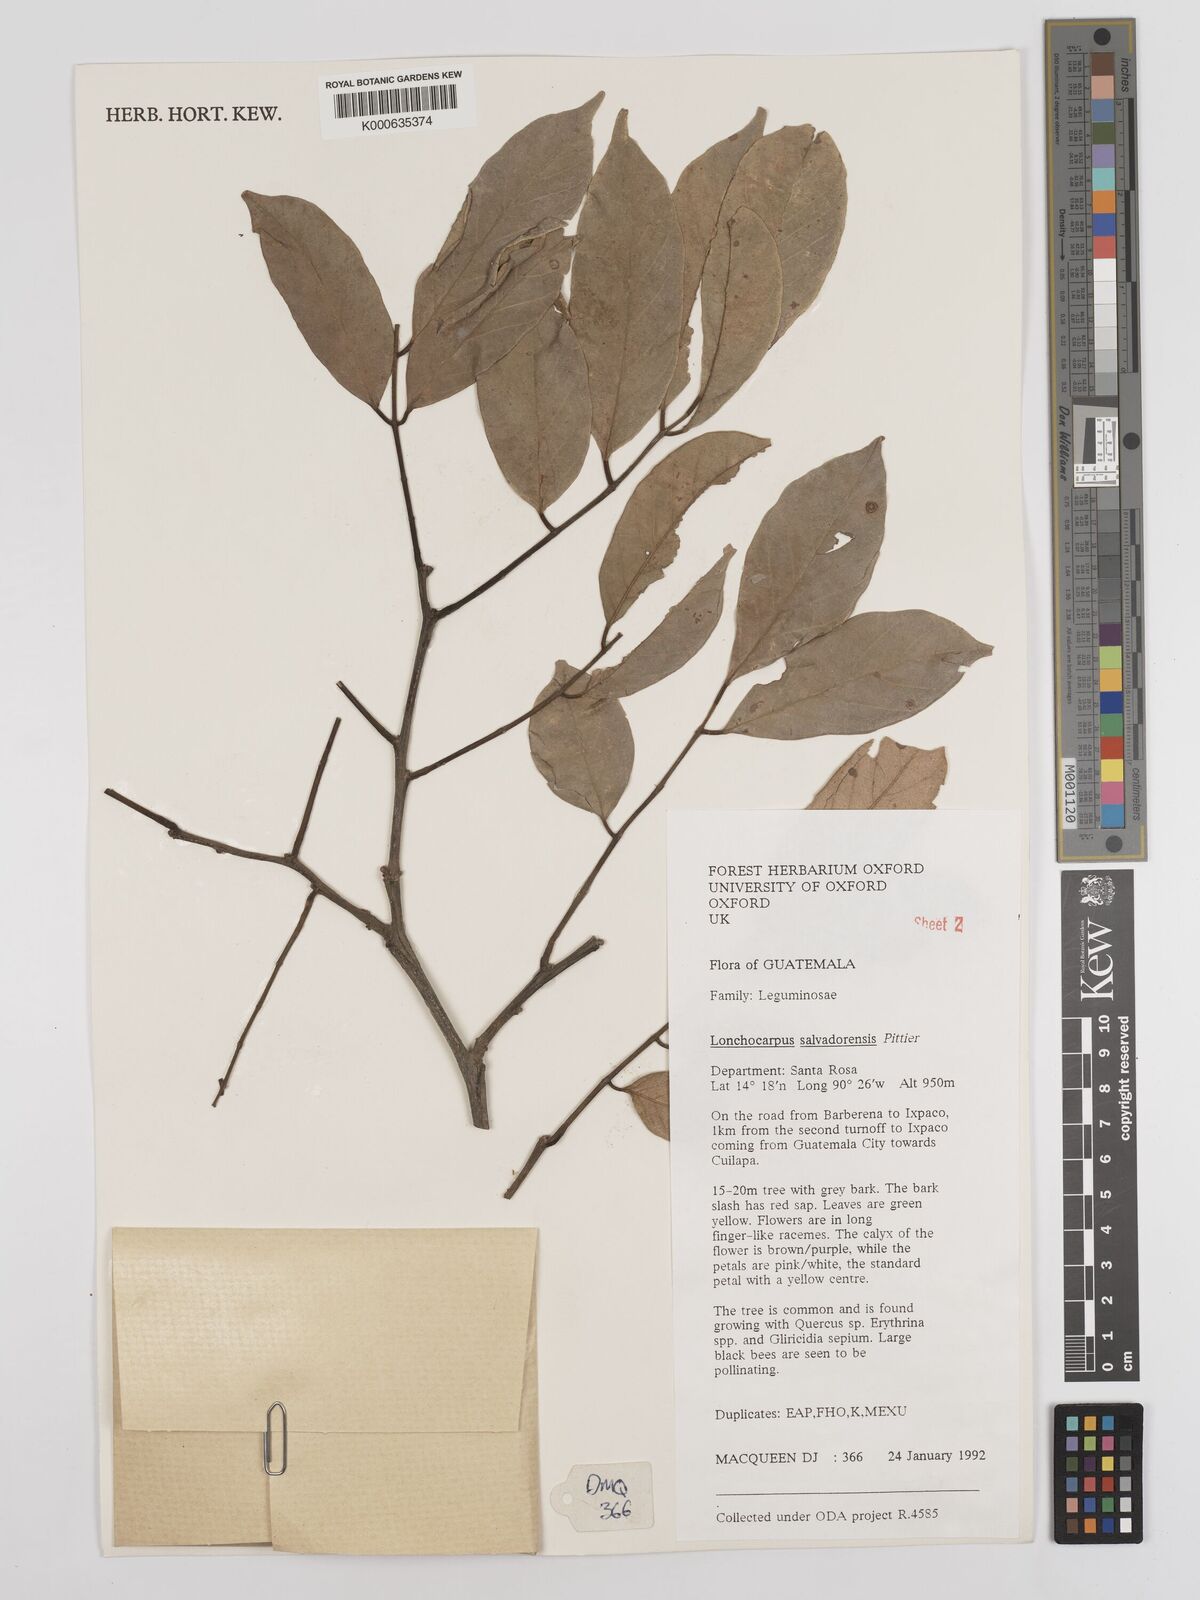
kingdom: Plantae
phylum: Tracheophyta
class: Magnoliopsida
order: Fabales
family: Fabaceae
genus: Lonchocarpus
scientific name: Lonchocarpus salvadorensis
